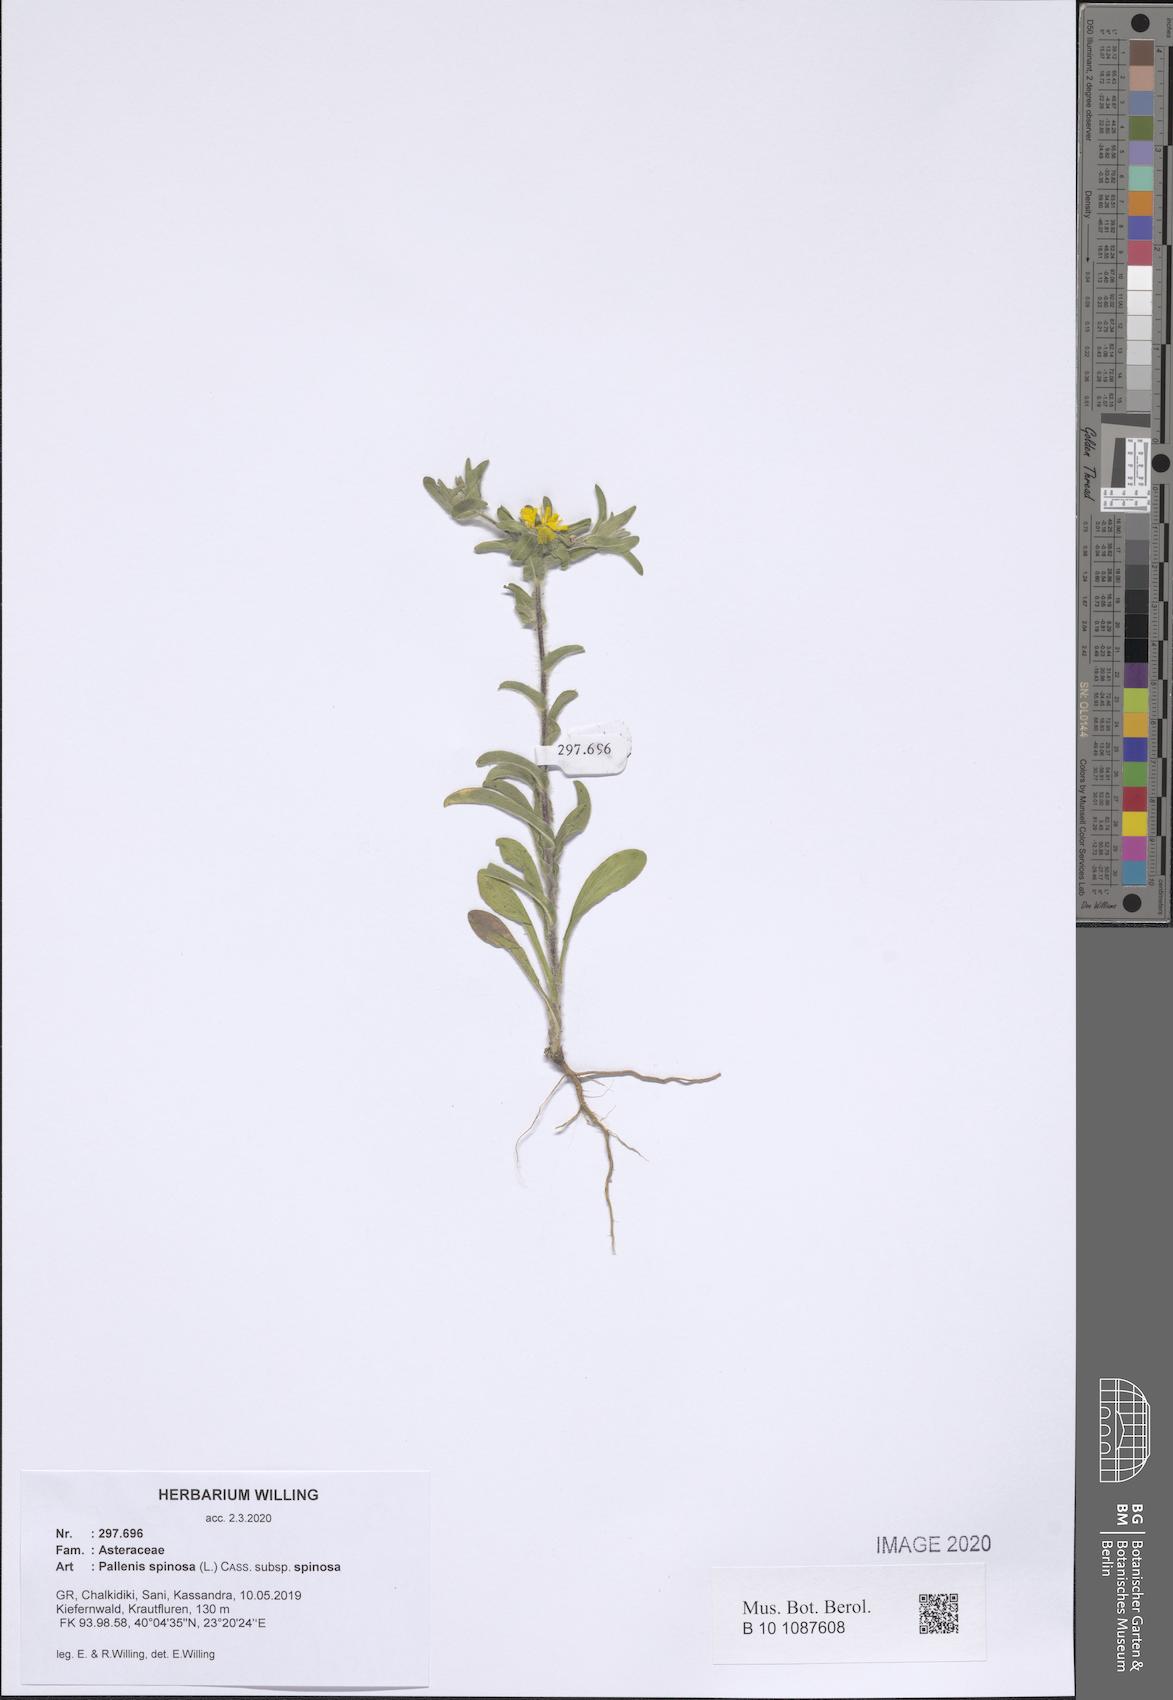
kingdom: Plantae
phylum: Tracheophyta
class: Magnoliopsida
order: Asterales
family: Asteraceae
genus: Pallenis
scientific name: Pallenis spinosa
